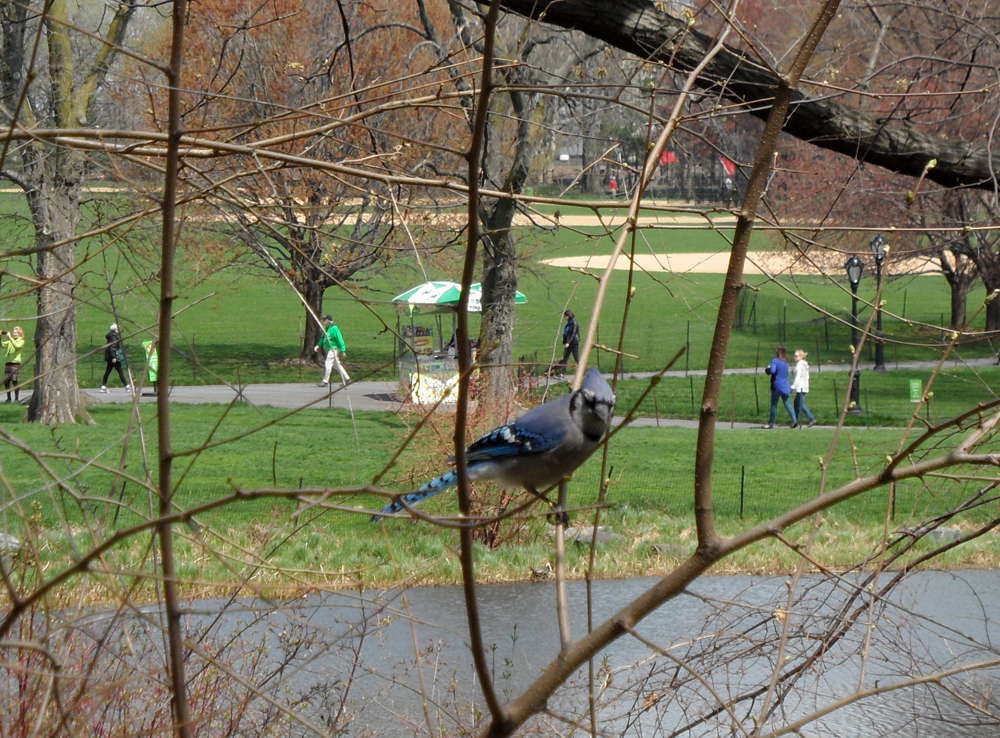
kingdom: Animalia
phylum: Chordata
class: Aves
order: Passeriformes
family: Corvidae
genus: Cyanocitta
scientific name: Cyanocitta cristata
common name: Blue jay
